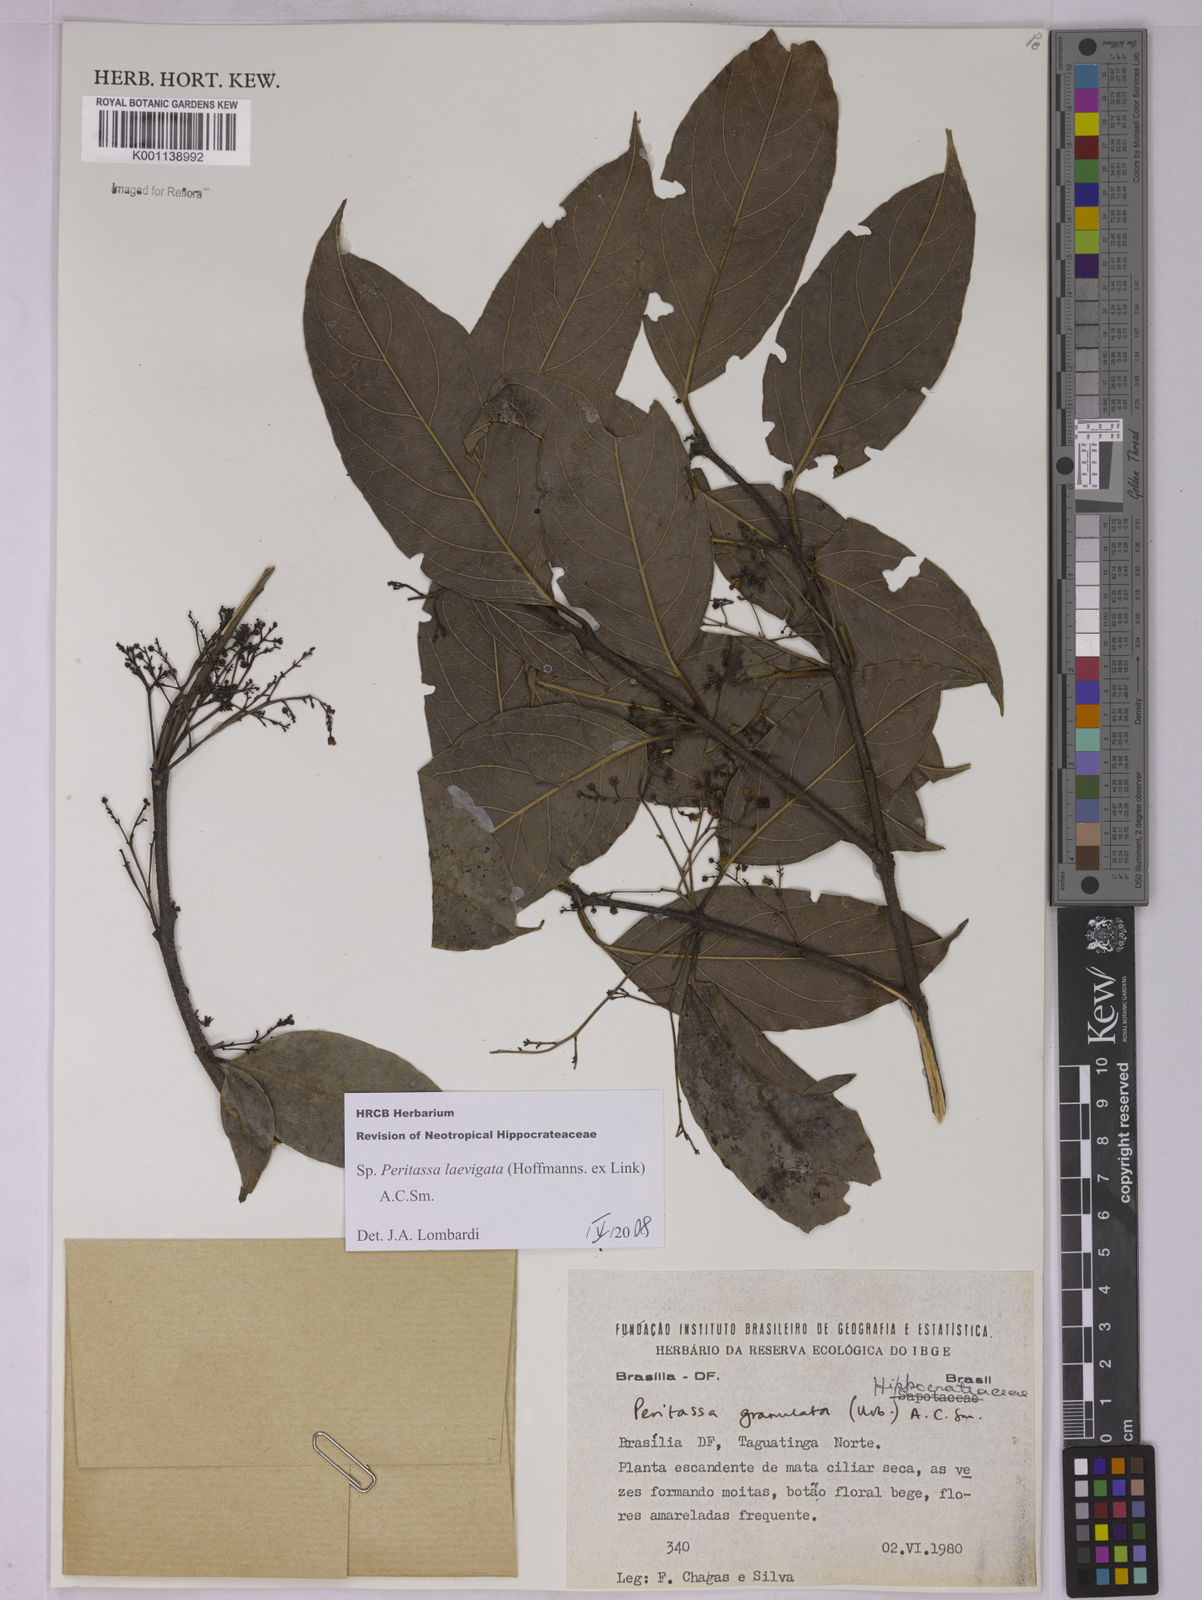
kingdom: Plantae
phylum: Tracheophyta
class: Magnoliopsida
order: Celastrales
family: Celastraceae
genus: Peritassa
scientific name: Peritassa laevigata
